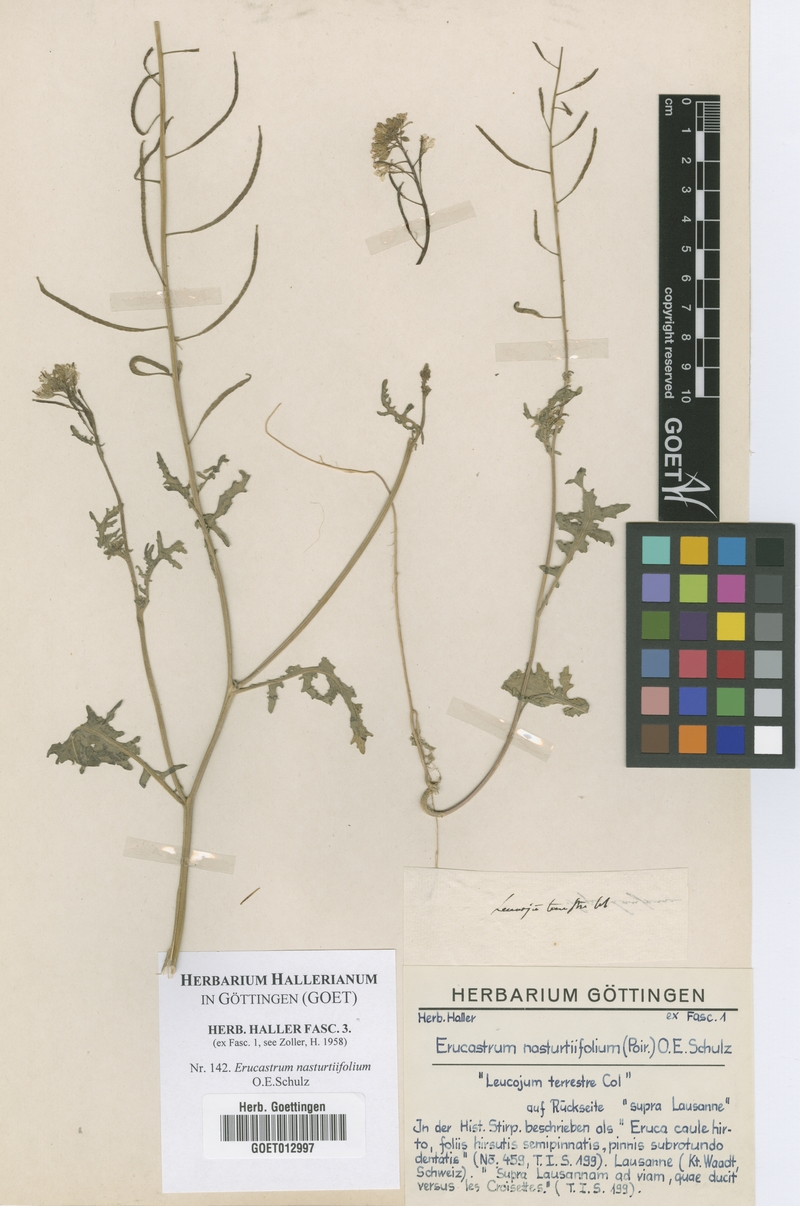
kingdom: Plantae
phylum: Tracheophyta
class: Magnoliopsida
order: Brassicales
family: Brassicaceae
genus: Erucastrum
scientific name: Erucastrum nasturtiifolium
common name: Watercress-leaf rocket
